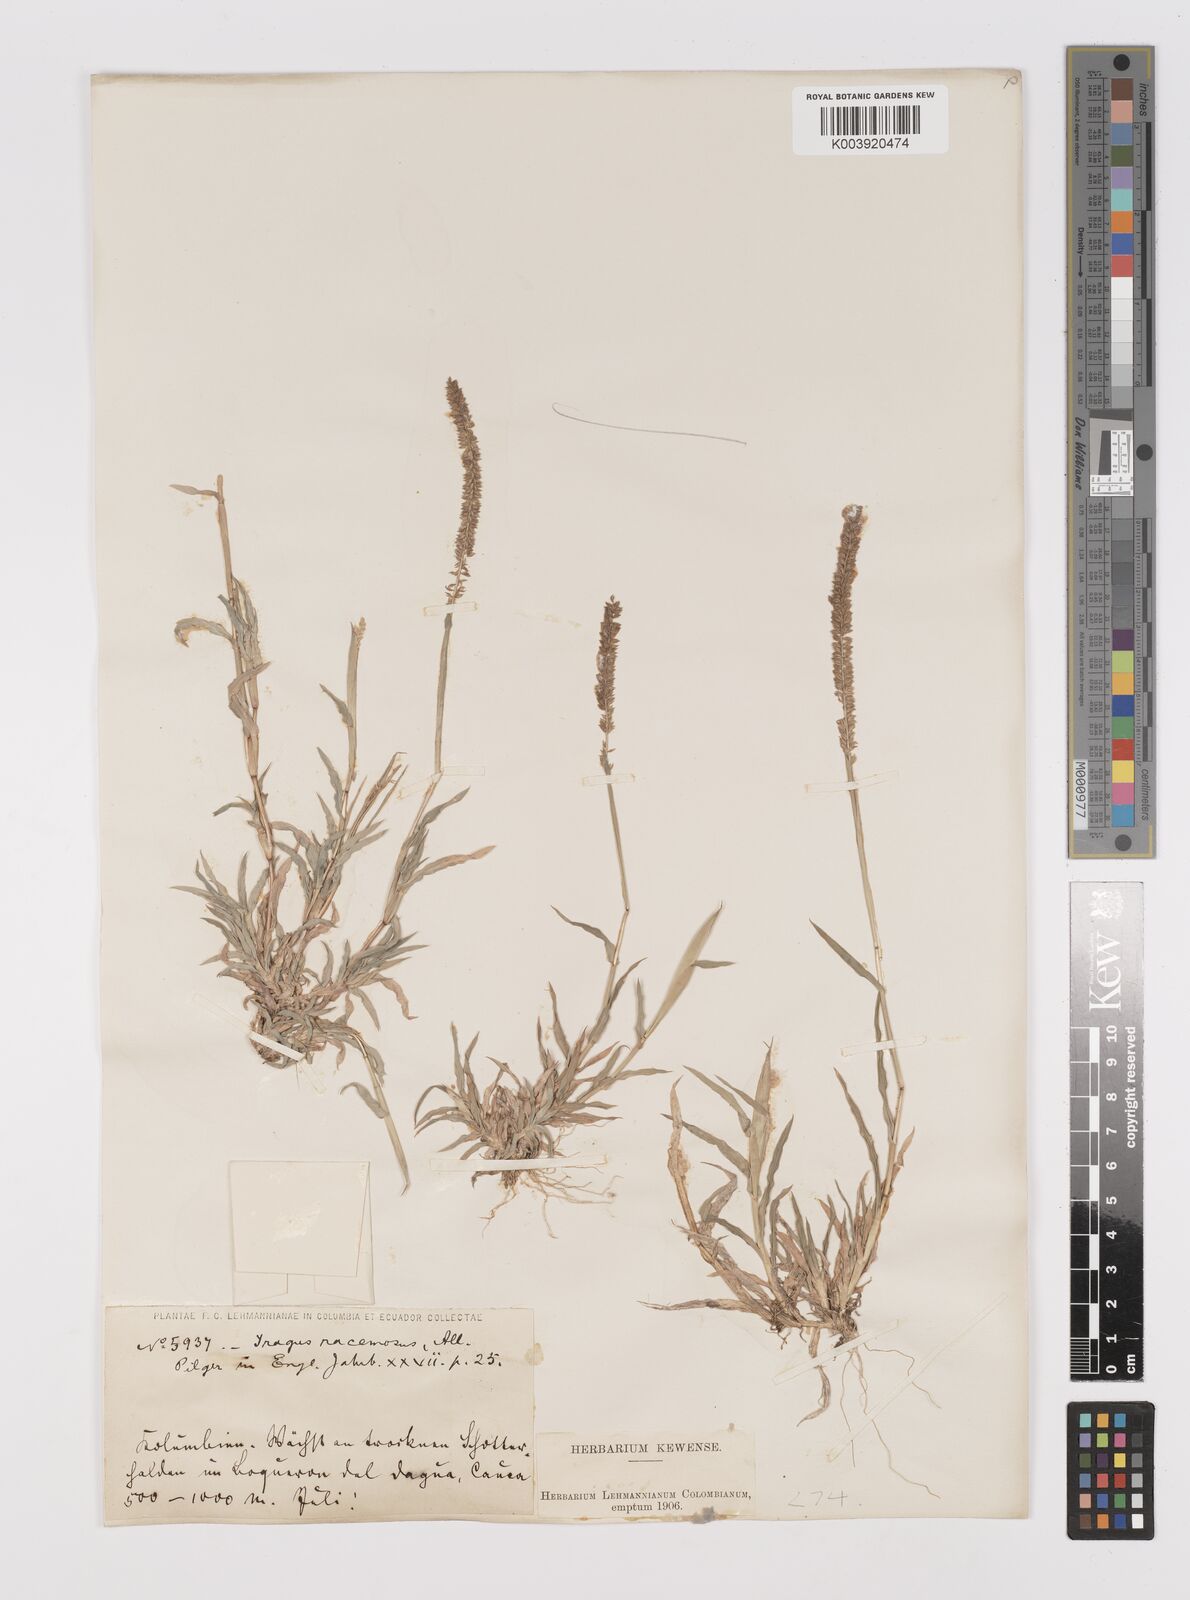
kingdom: Plantae
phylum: Tracheophyta
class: Liliopsida
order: Poales
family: Poaceae
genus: Tragus
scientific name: Tragus berteronianus
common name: African bur-grass
